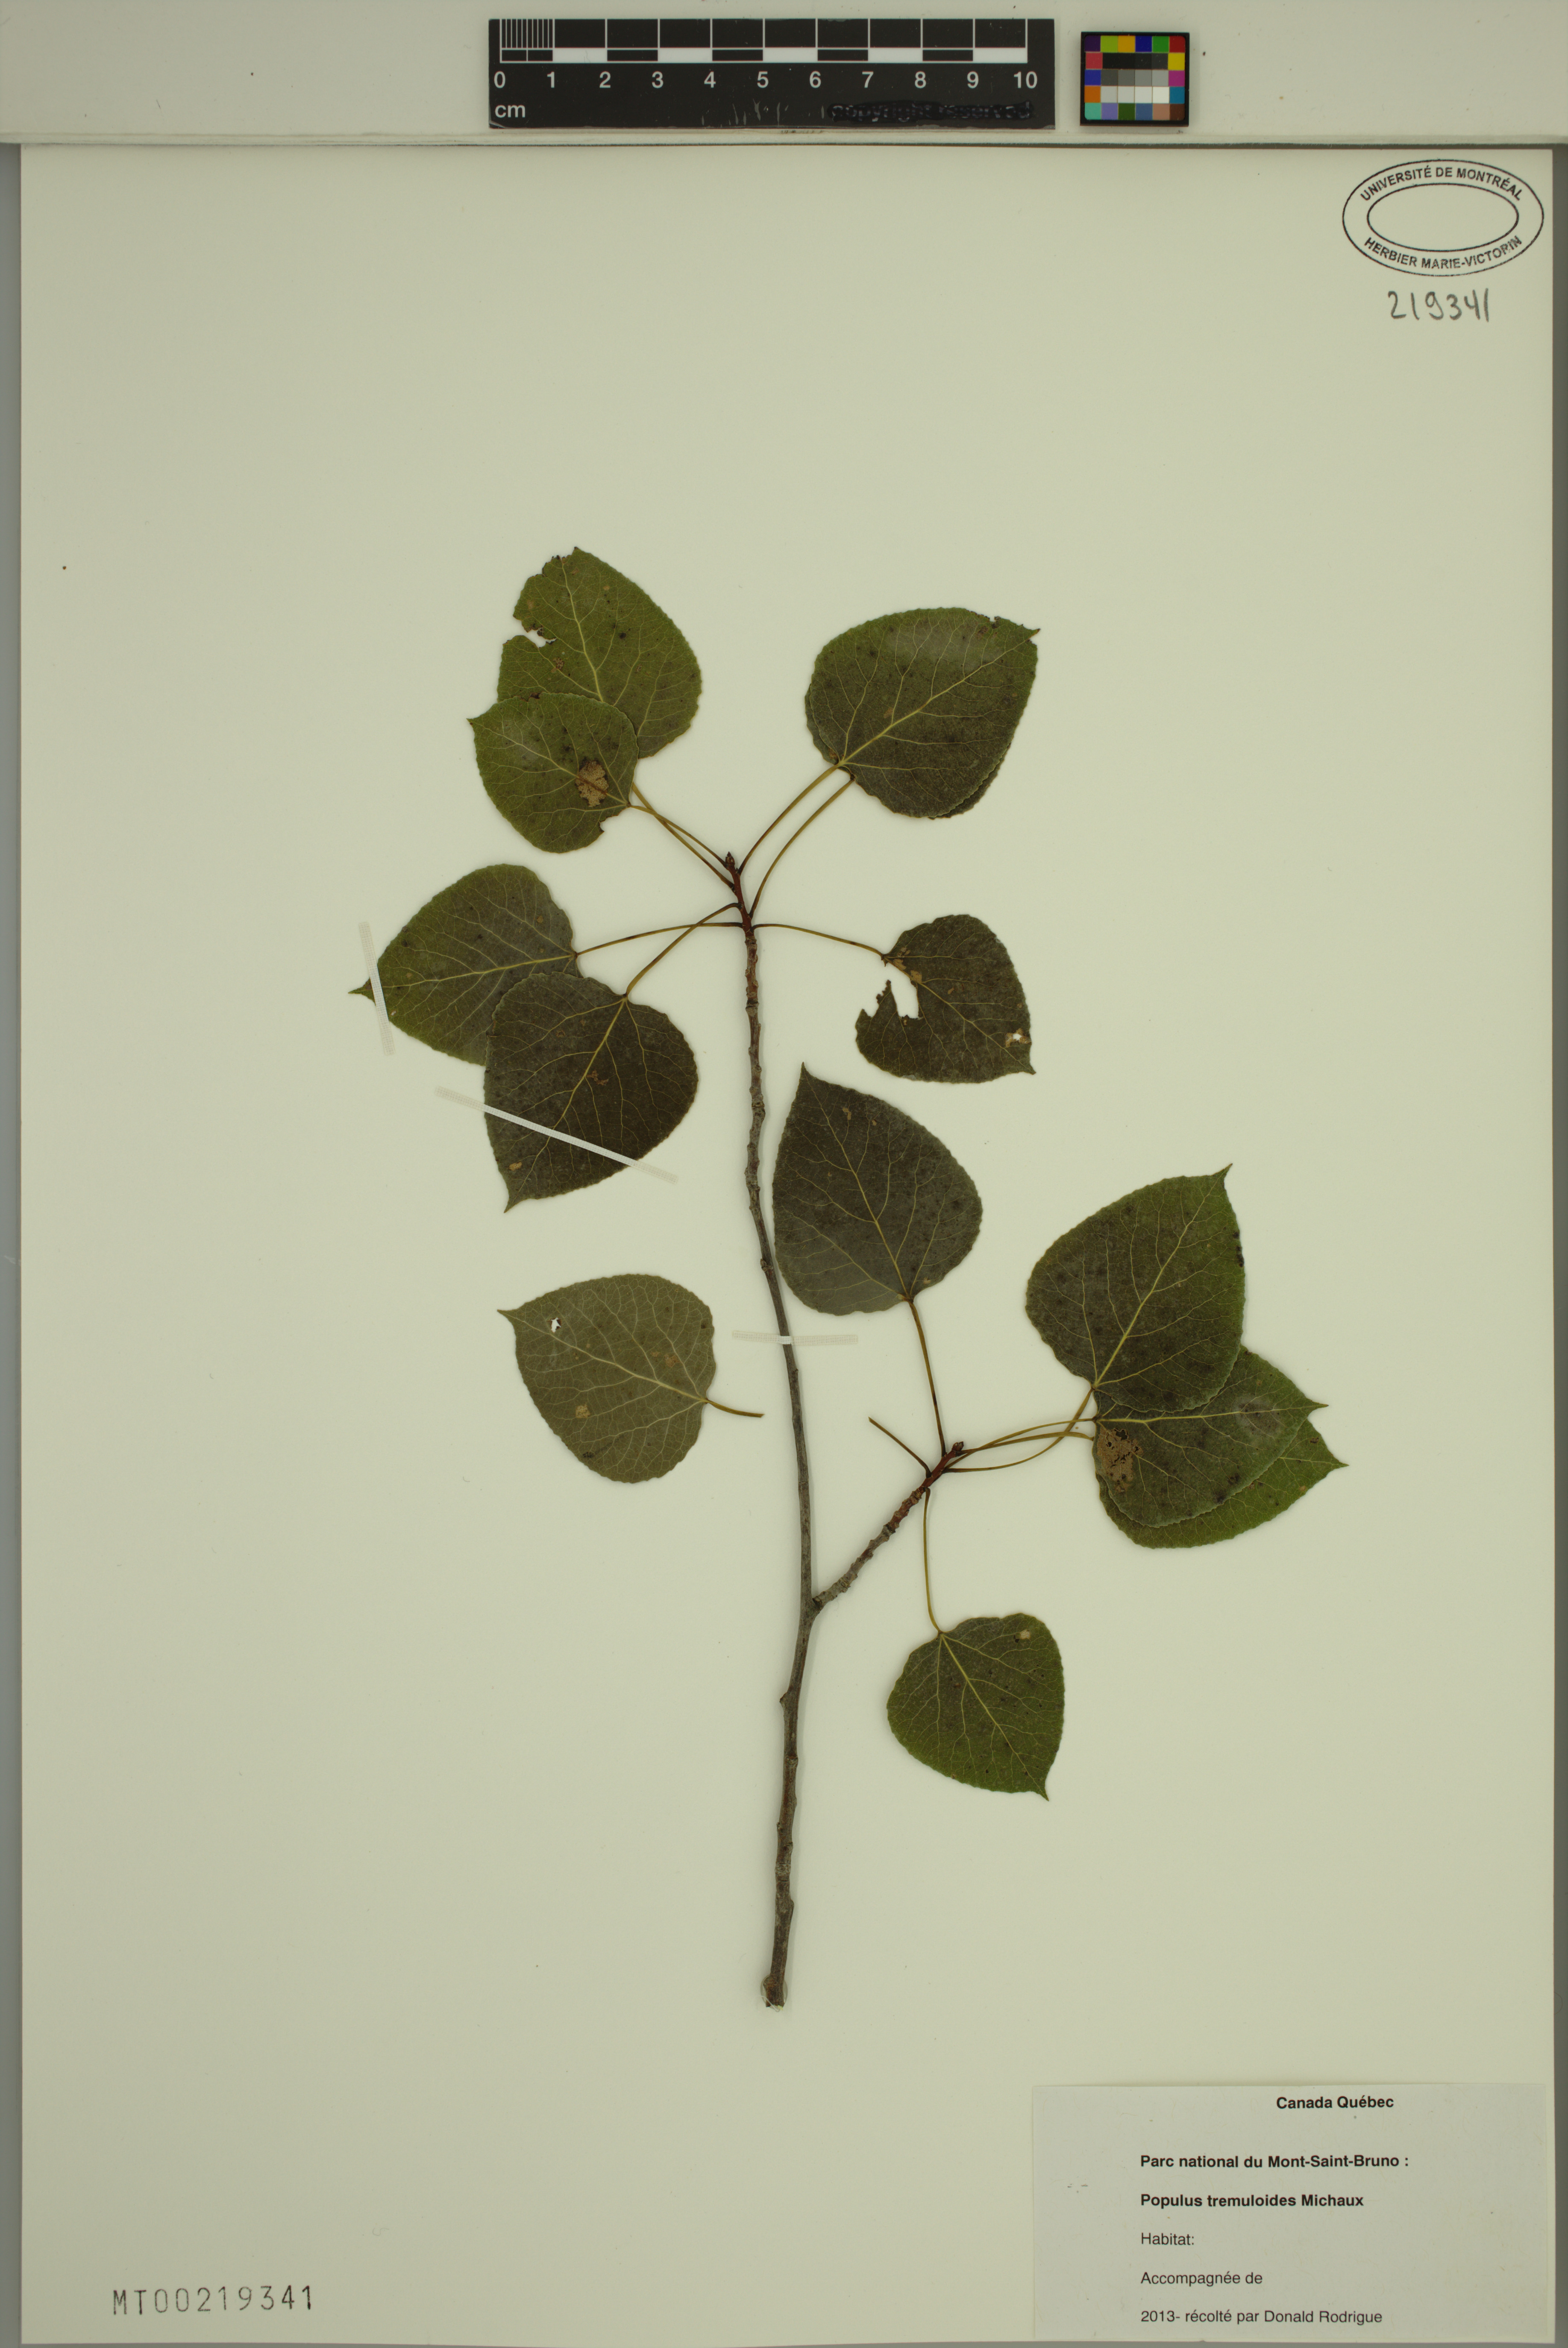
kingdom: Plantae
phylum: Tracheophyta
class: Magnoliopsida
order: Malpighiales
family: Salicaceae
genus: Populus
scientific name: Populus tremuloides
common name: Quaking aspen
